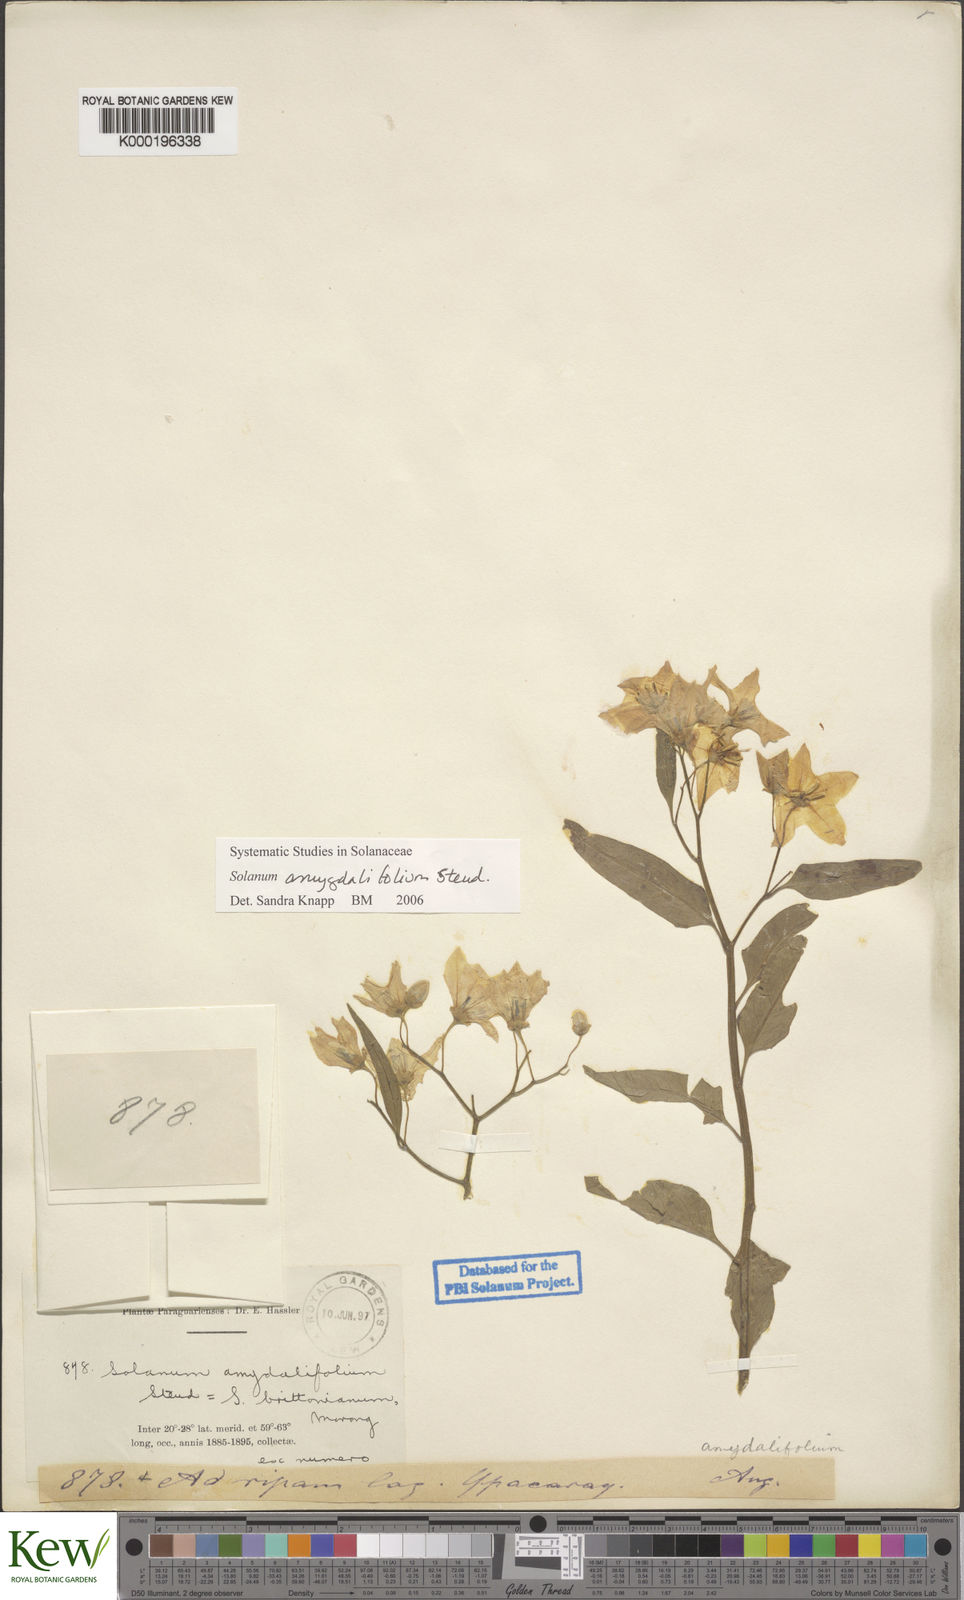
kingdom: Plantae
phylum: Tracheophyta
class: Magnoliopsida
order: Solanales
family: Solanaceae
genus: Solanum
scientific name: Solanum amygdalifolium
